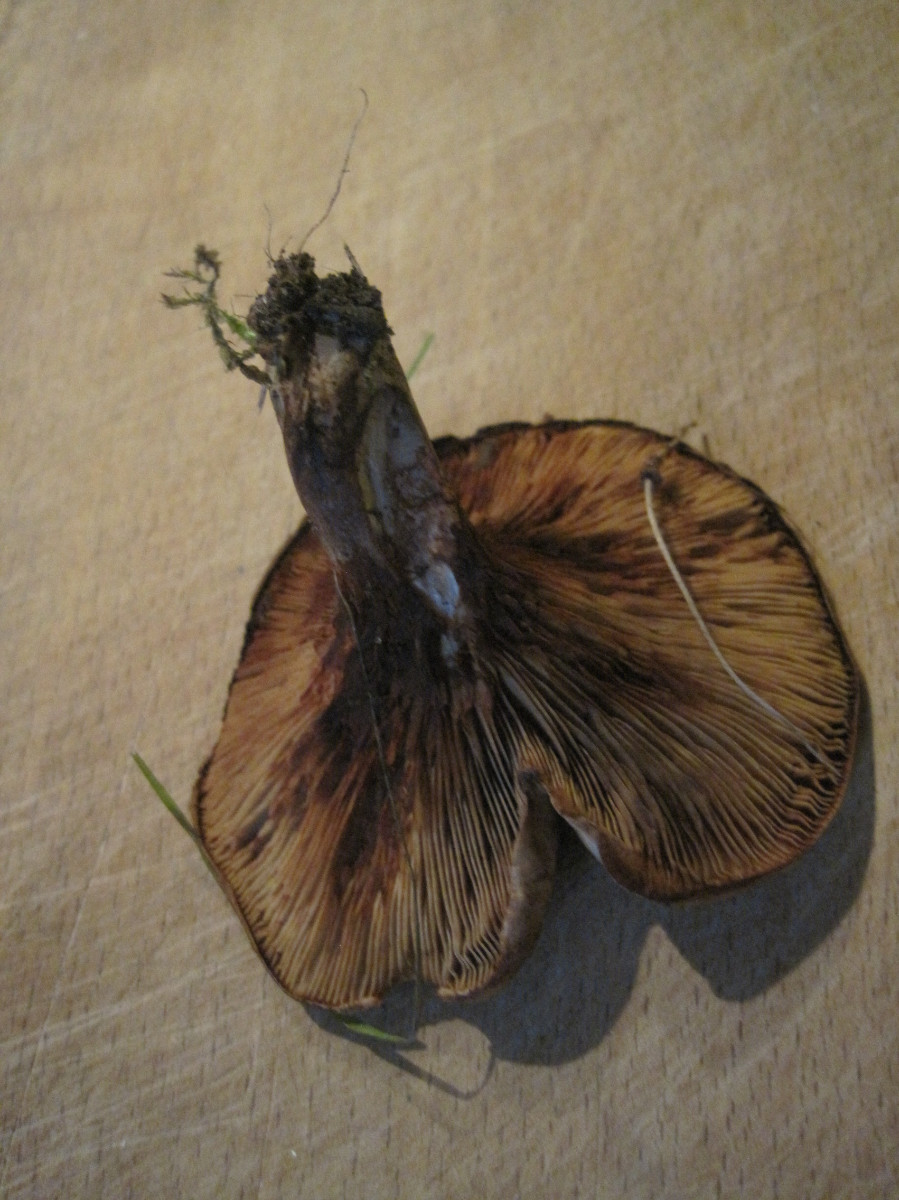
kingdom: Fungi
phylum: Basidiomycota
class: Agaricomycetes
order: Boletales
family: Paxillaceae
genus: Paxillus
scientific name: Paxillus ammoniavirescens
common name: olivensporet netbladhat
